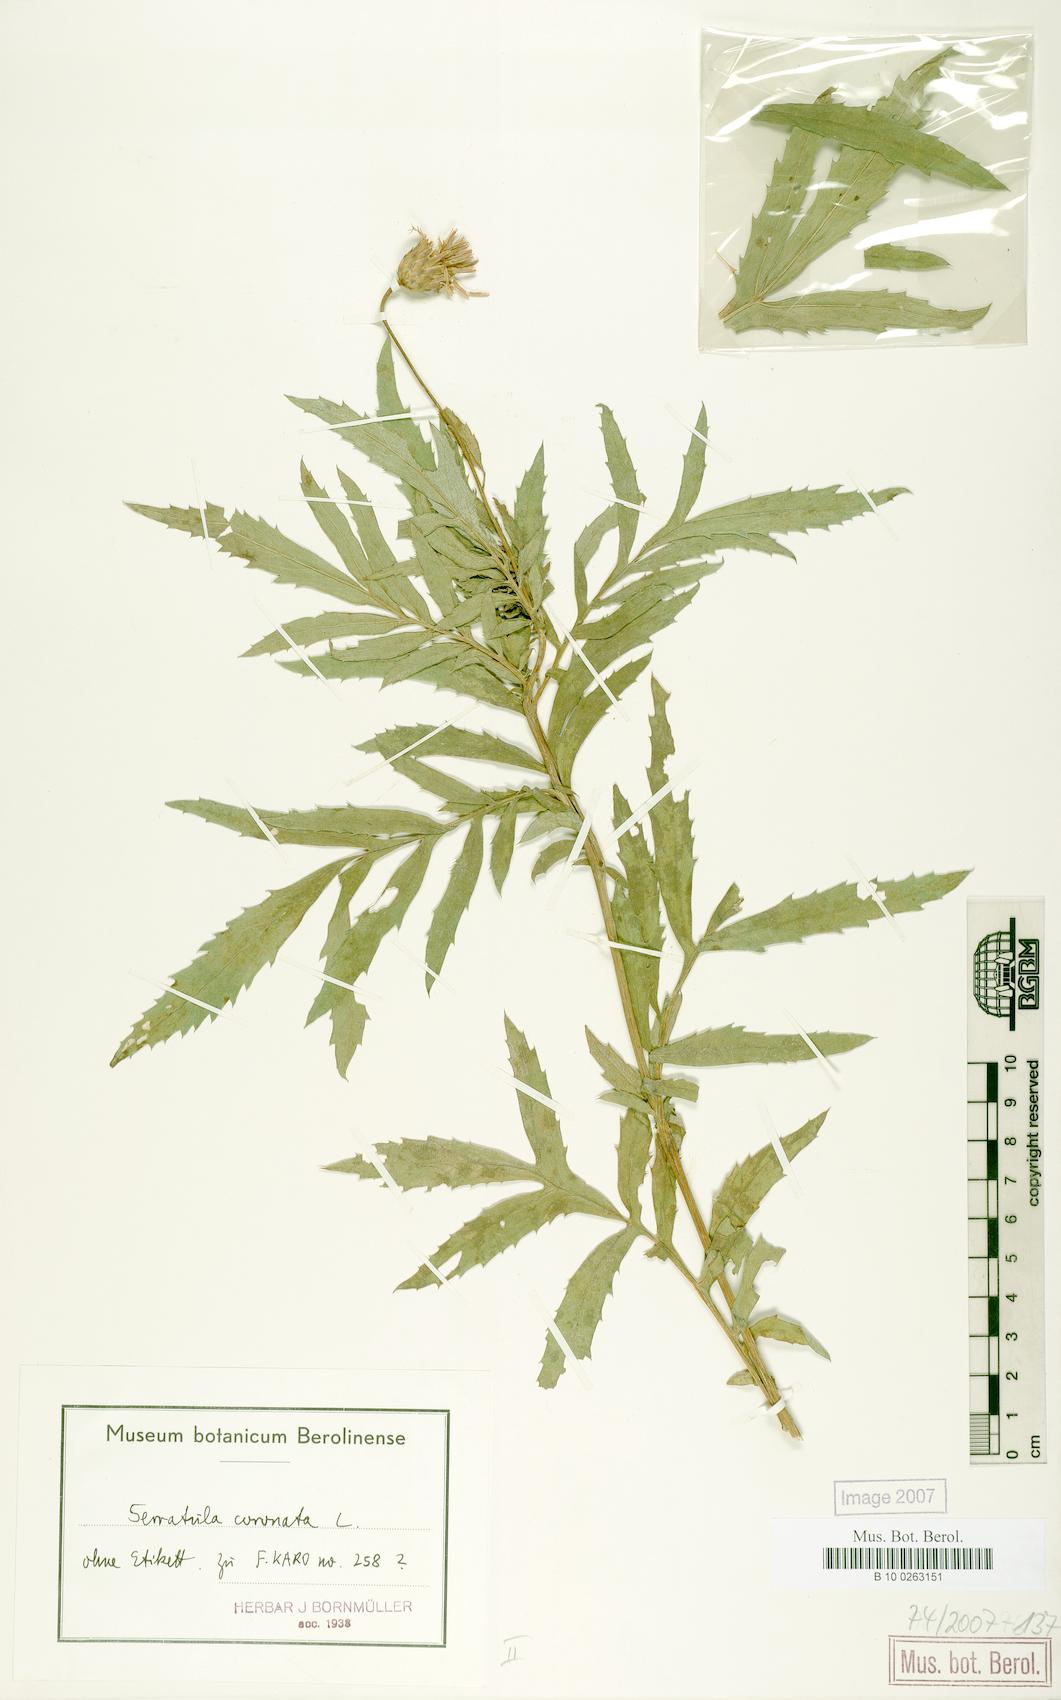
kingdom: Plantae
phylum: Tracheophyta
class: Magnoliopsida
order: Asterales
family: Asteraceae
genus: Serratula
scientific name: Serratula coronata
